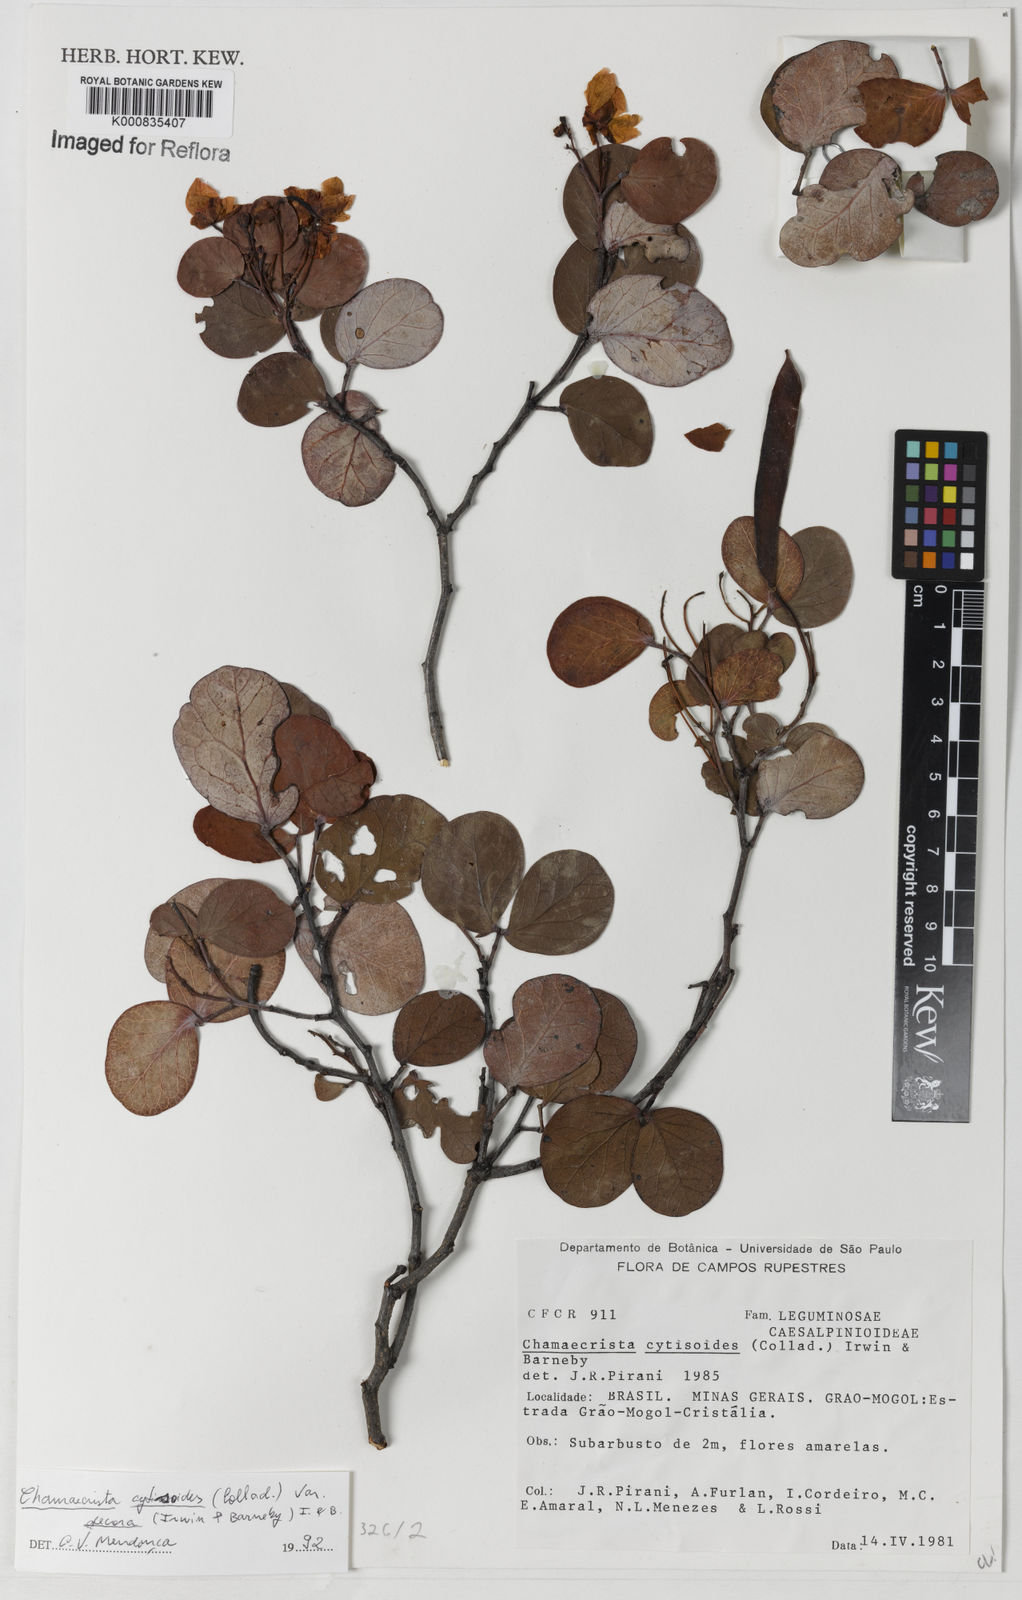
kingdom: Plantae
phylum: Tracheophyta
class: Magnoliopsida
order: Fabales
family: Fabaceae
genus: Chamaecrista
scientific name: Chamaecrista decora
